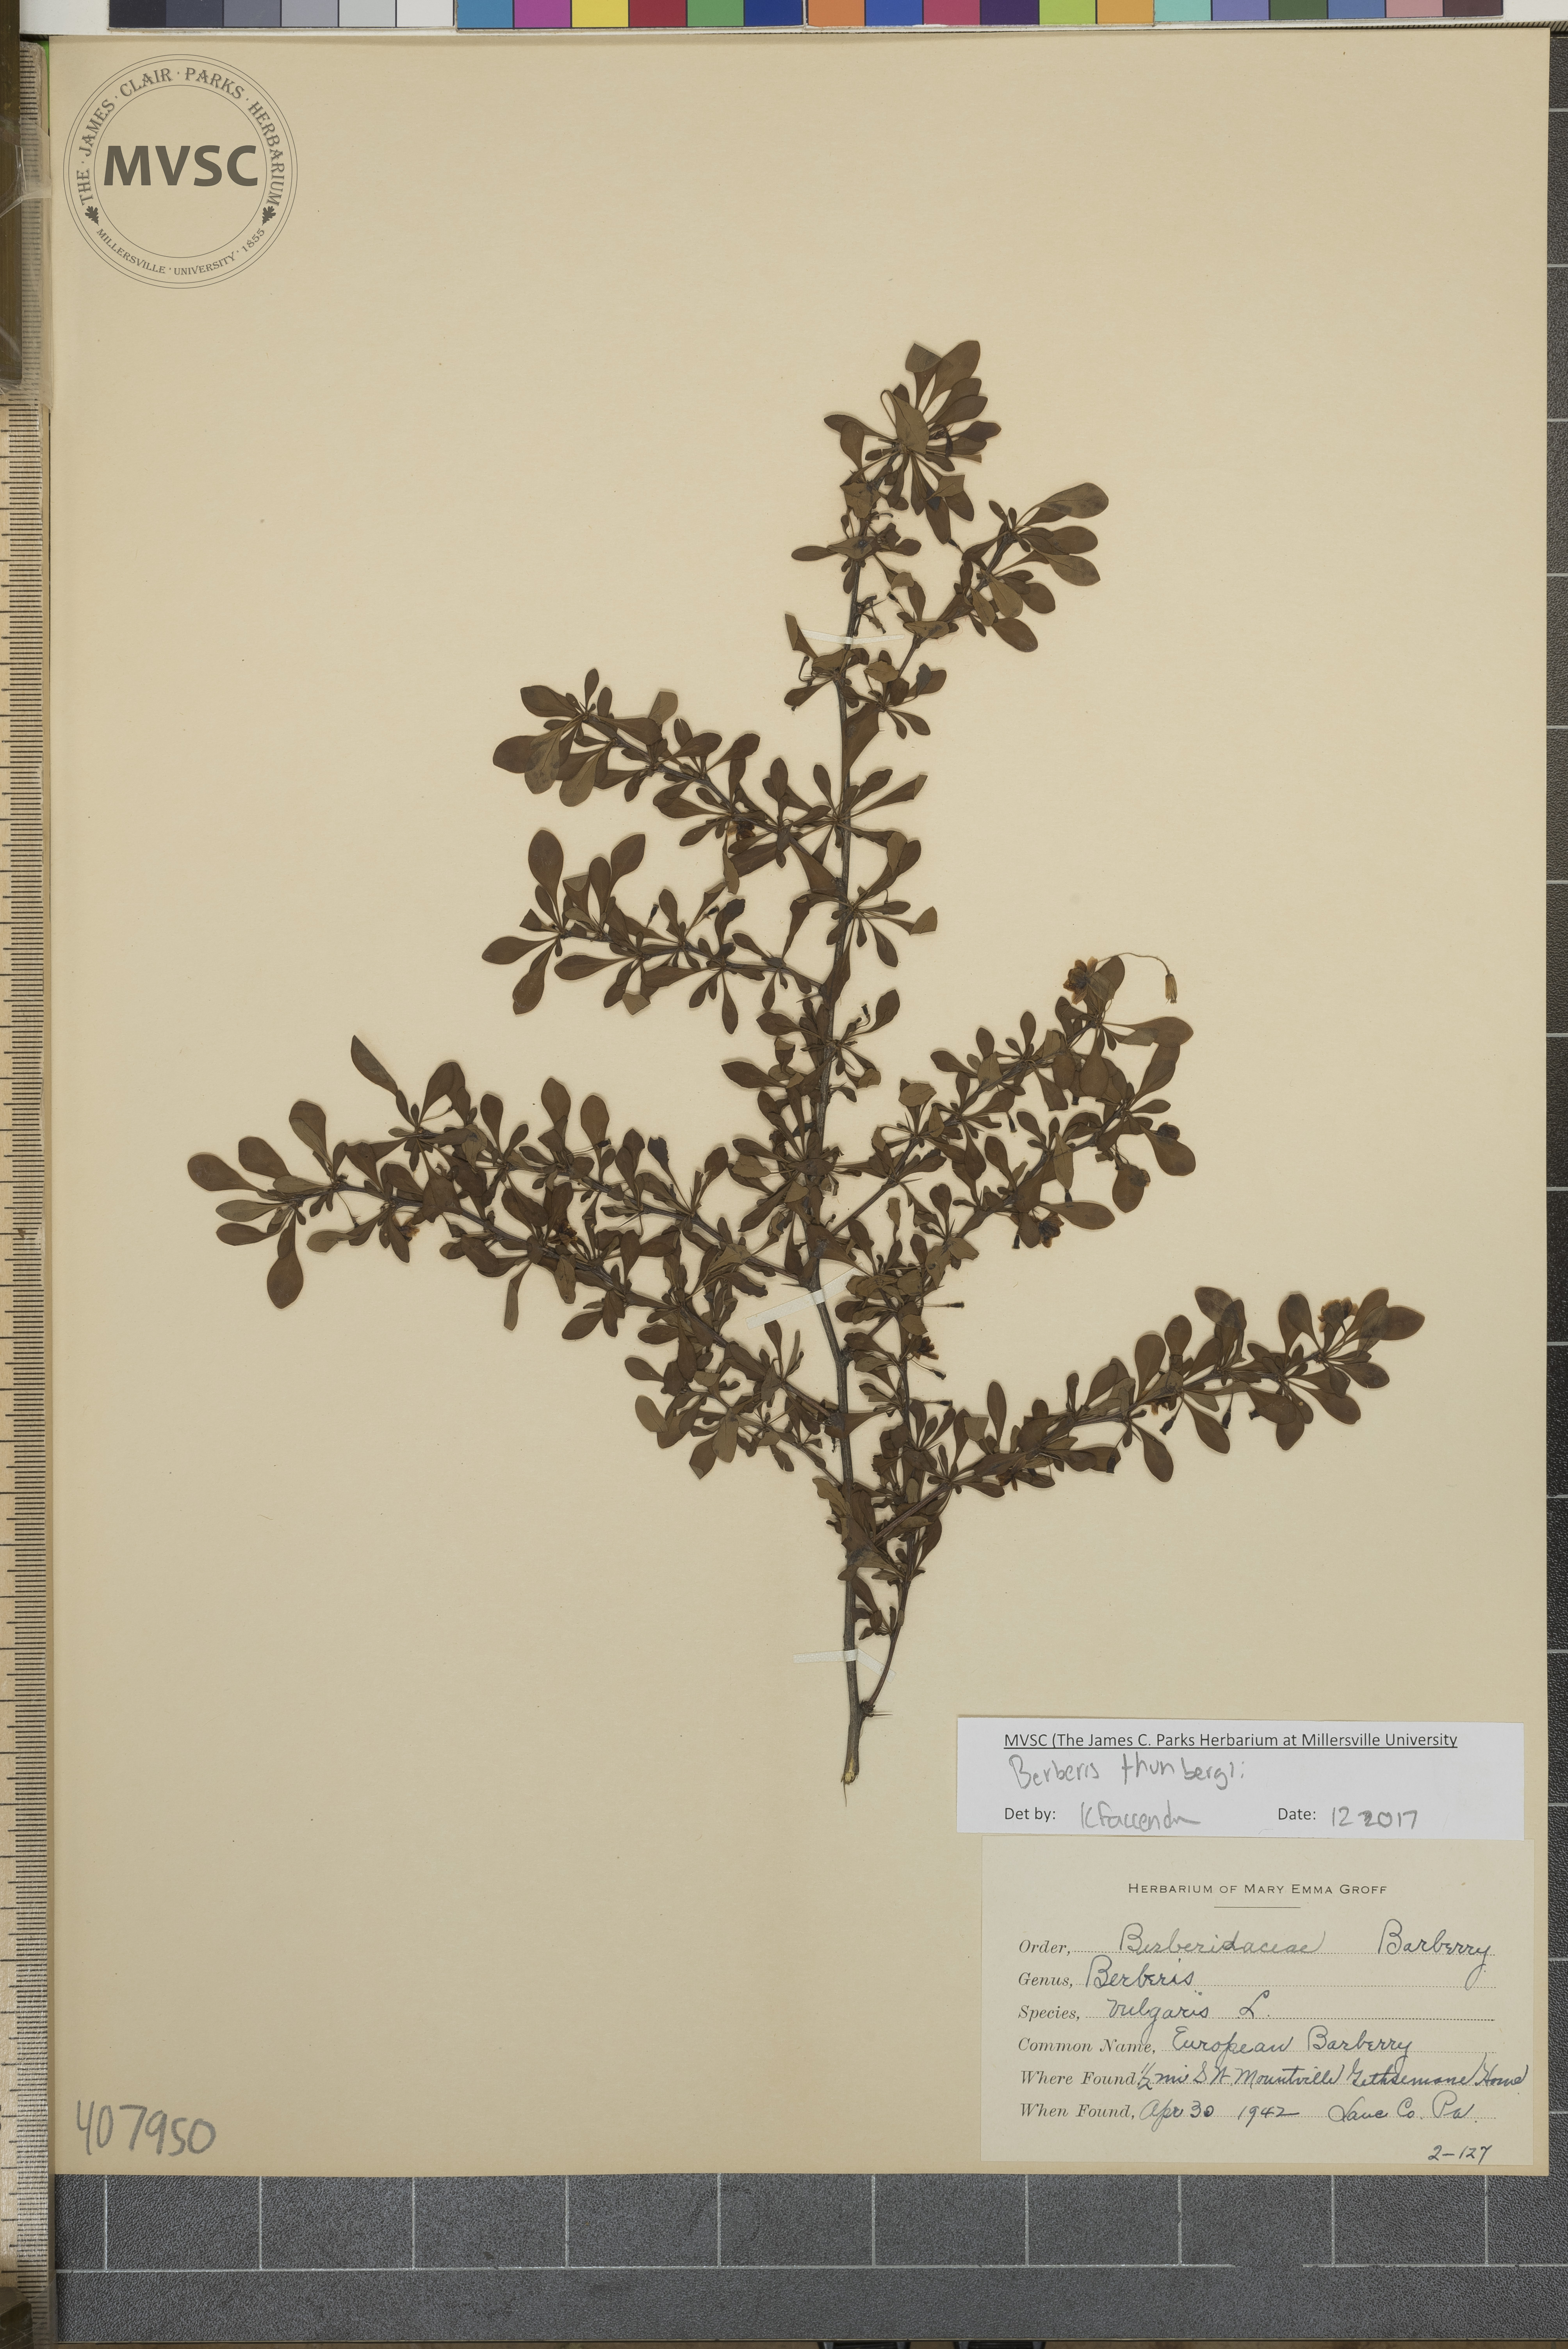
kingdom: Plantae
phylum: Tracheophyta
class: Magnoliopsida
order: Ranunculales
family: Berberidaceae
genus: Berberis
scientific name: Berberis thunbergii
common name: japanese barberry
